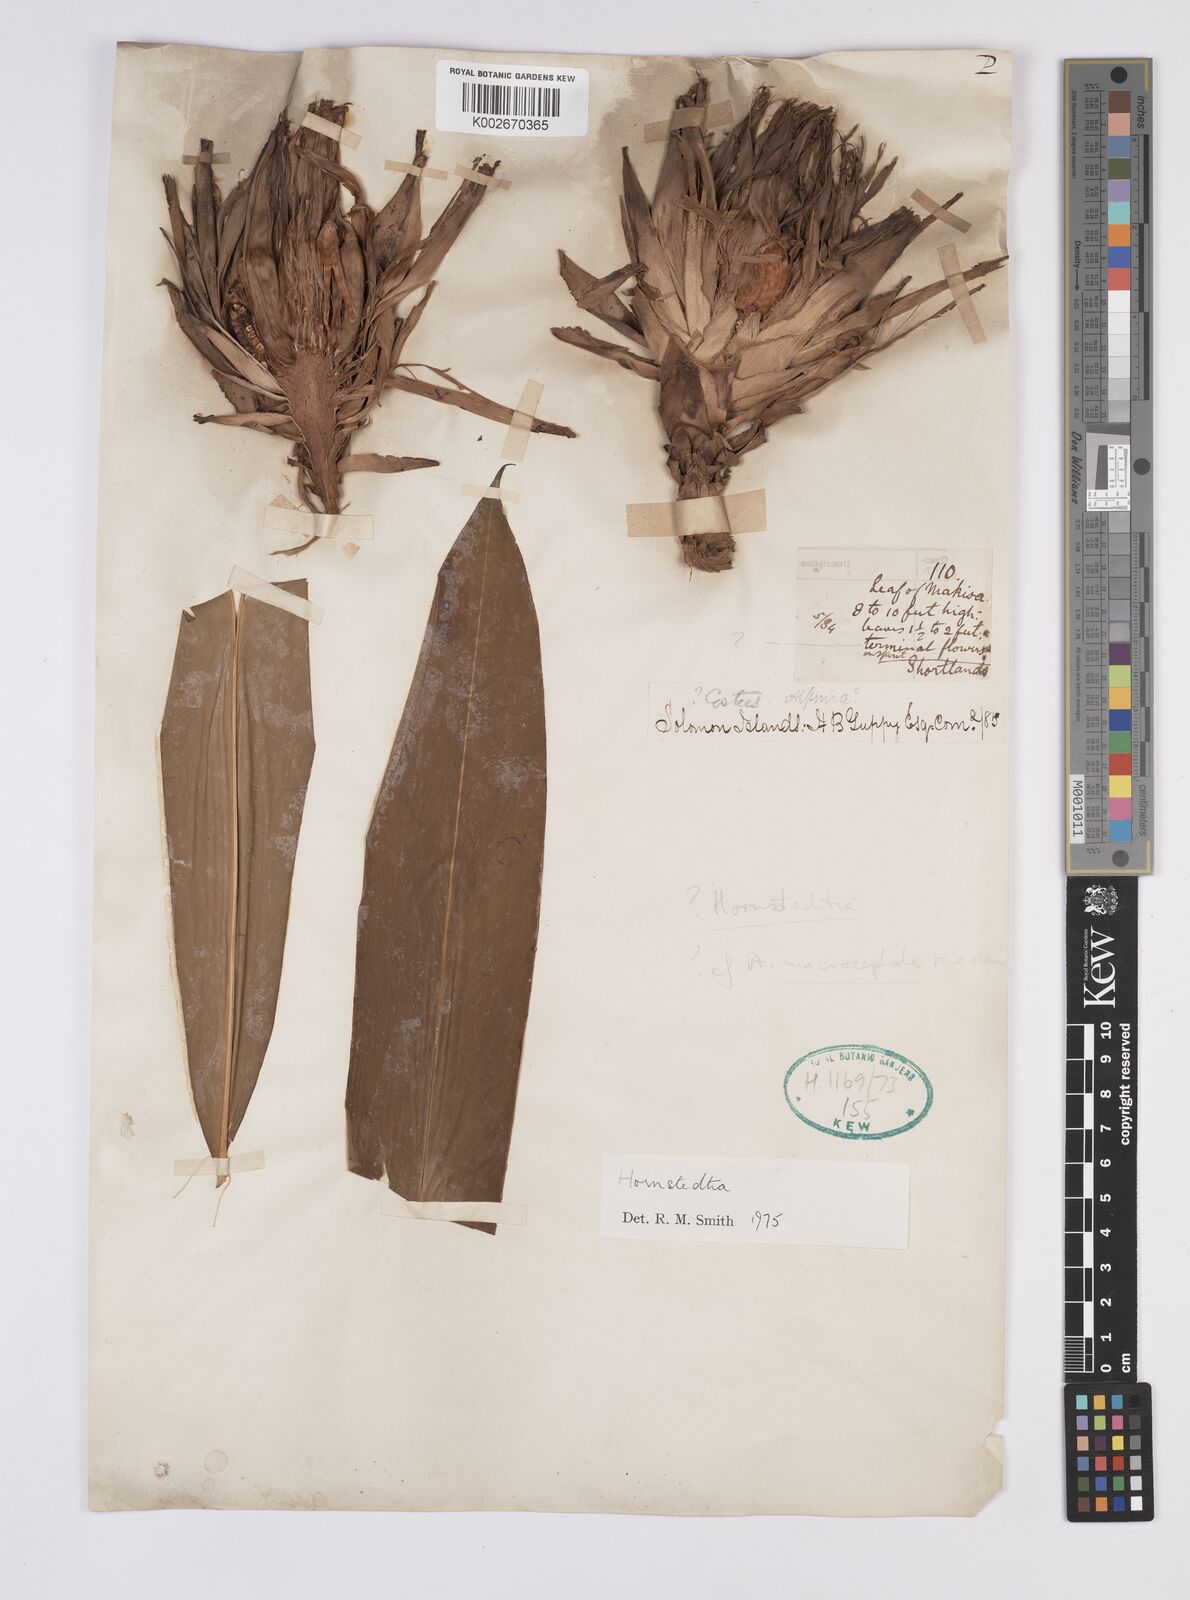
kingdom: Plantae
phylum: Tracheophyta
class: Liliopsida
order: Zingiberales
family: Zingiberaceae
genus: Hornstedtia
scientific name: Hornstedtia
